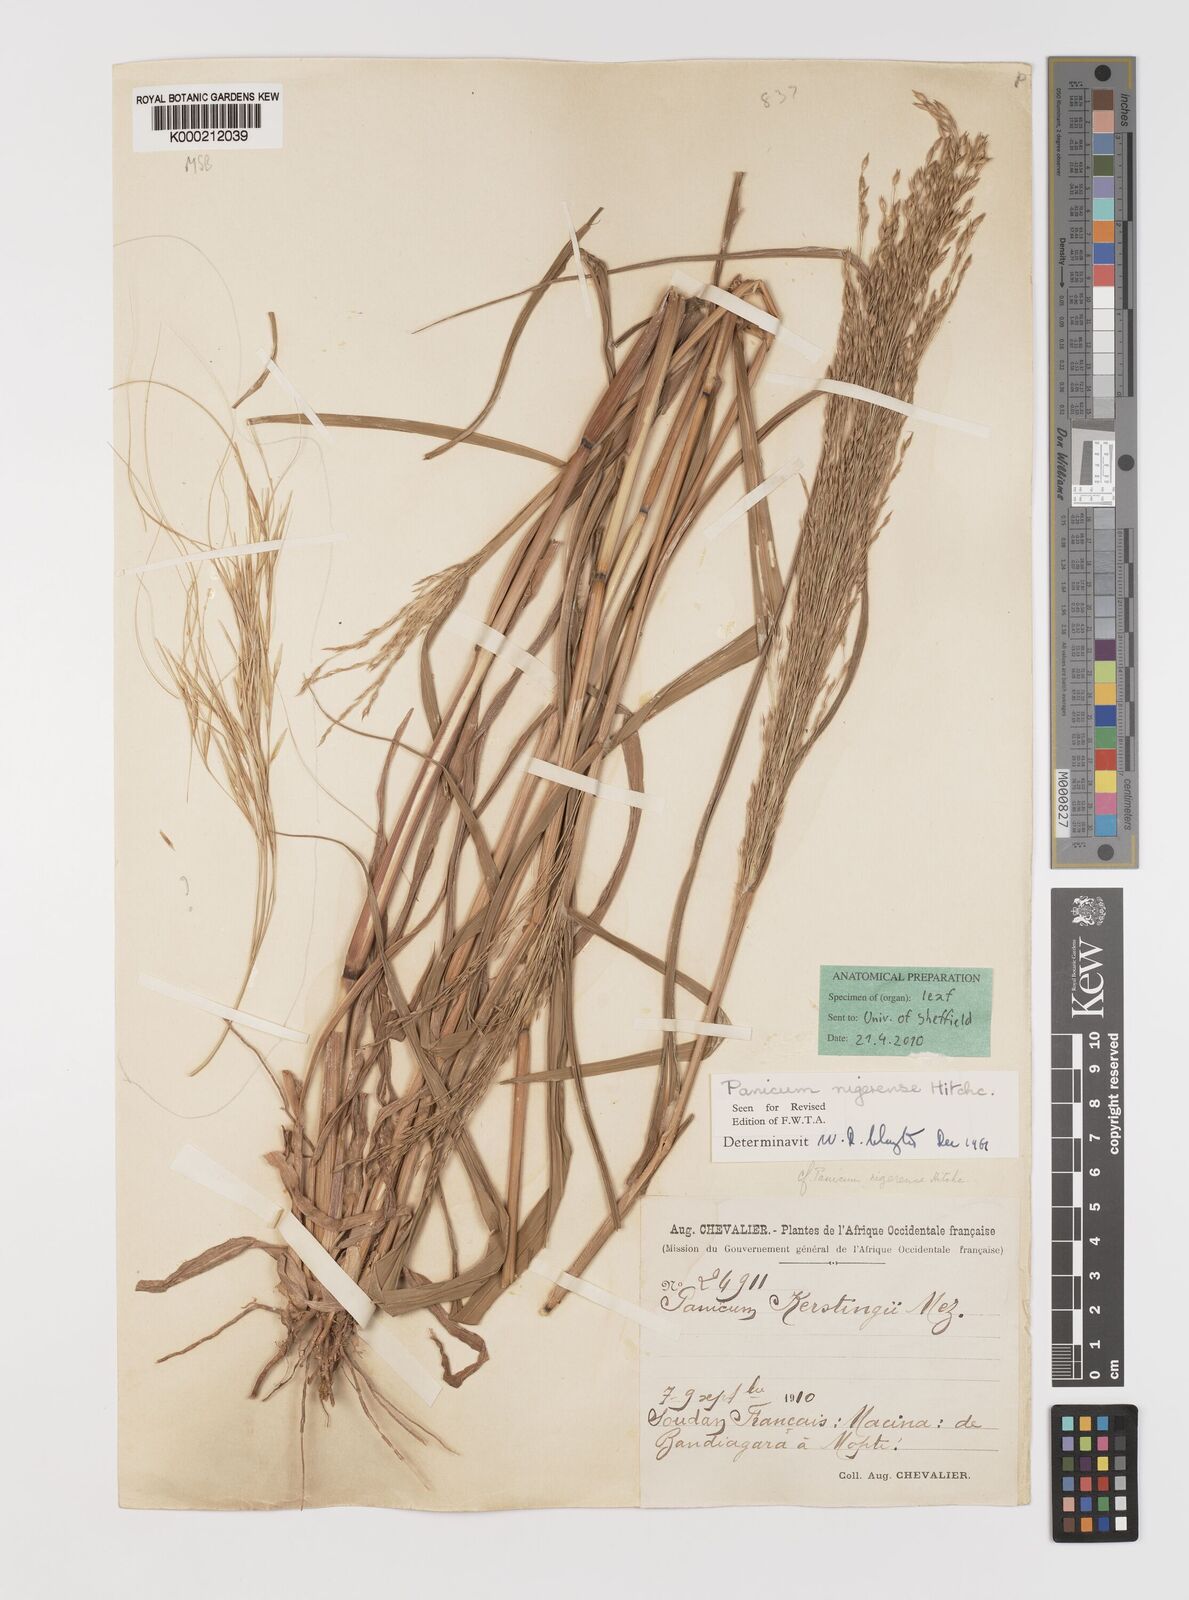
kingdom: Plantae
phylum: Tracheophyta
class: Liliopsida
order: Poales
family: Poaceae
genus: Panicum
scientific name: Panicum nigerense
